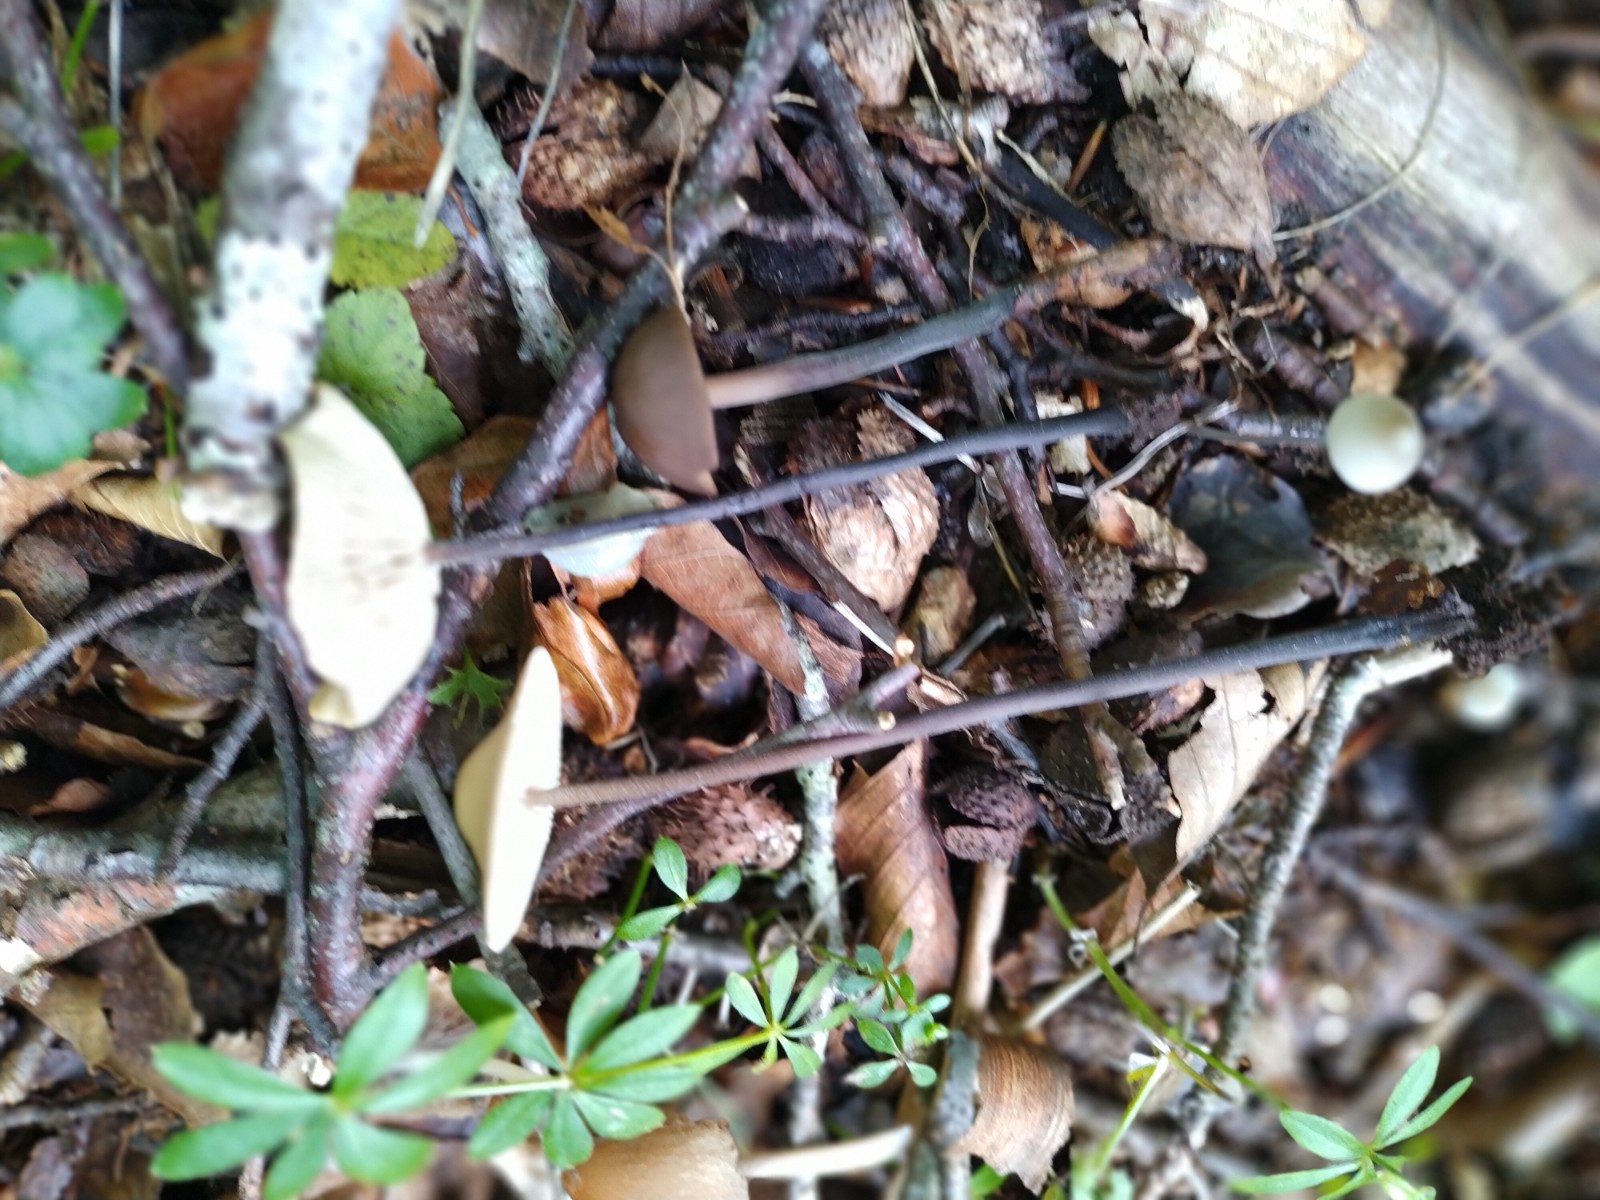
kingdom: Fungi
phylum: Basidiomycota
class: Agaricomycetes
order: Agaricales
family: Omphalotaceae
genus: Mycetinis
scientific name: Mycetinis alliaceus
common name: stor løghat
